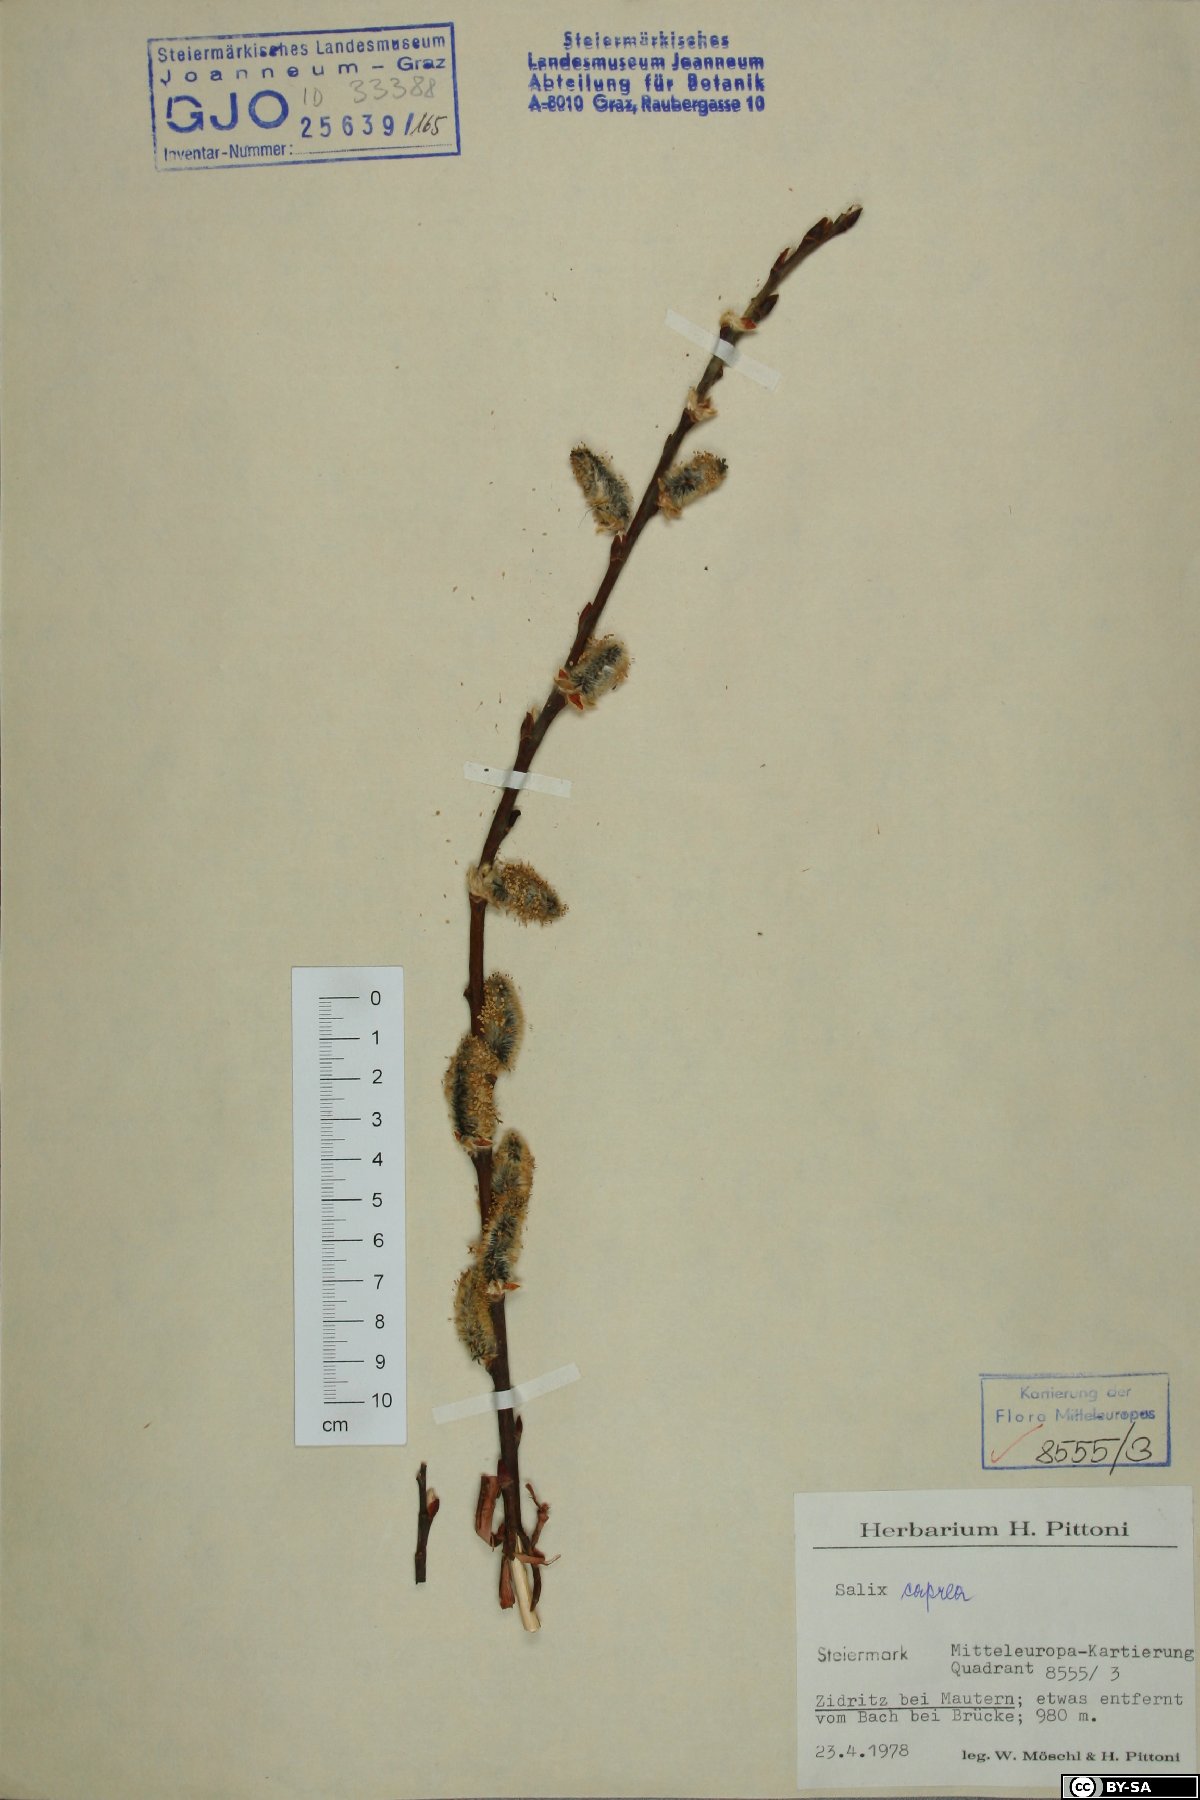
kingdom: Plantae
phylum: Tracheophyta
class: Magnoliopsida
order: Malpighiales
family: Salicaceae
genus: Salix
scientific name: Salix caprea
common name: Goat willow
